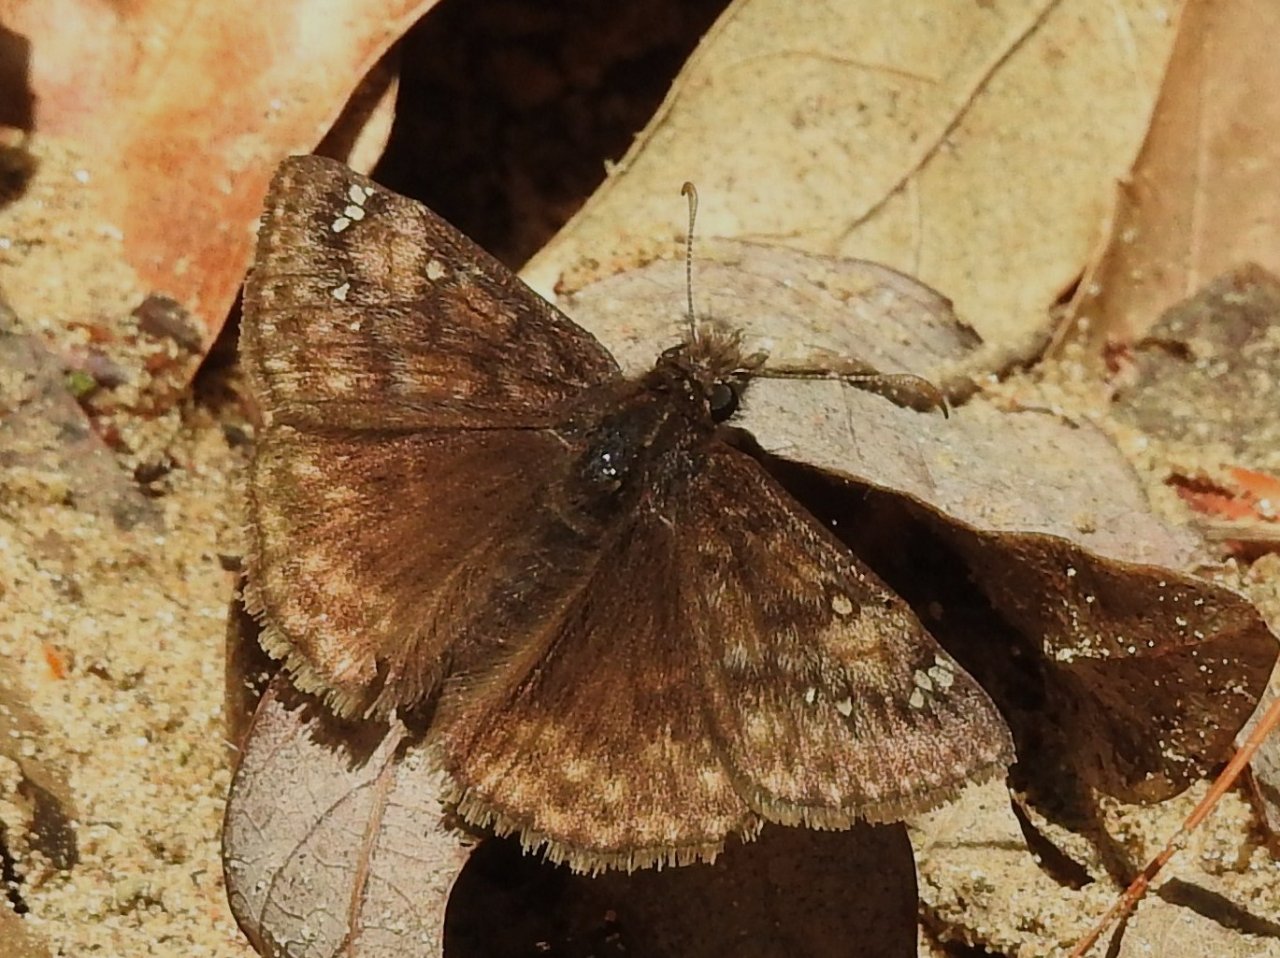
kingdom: Animalia
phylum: Arthropoda
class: Insecta
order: Lepidoptera
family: Hesperiidae
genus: Gesta
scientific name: Gesta
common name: Juvenal's Duskywing
